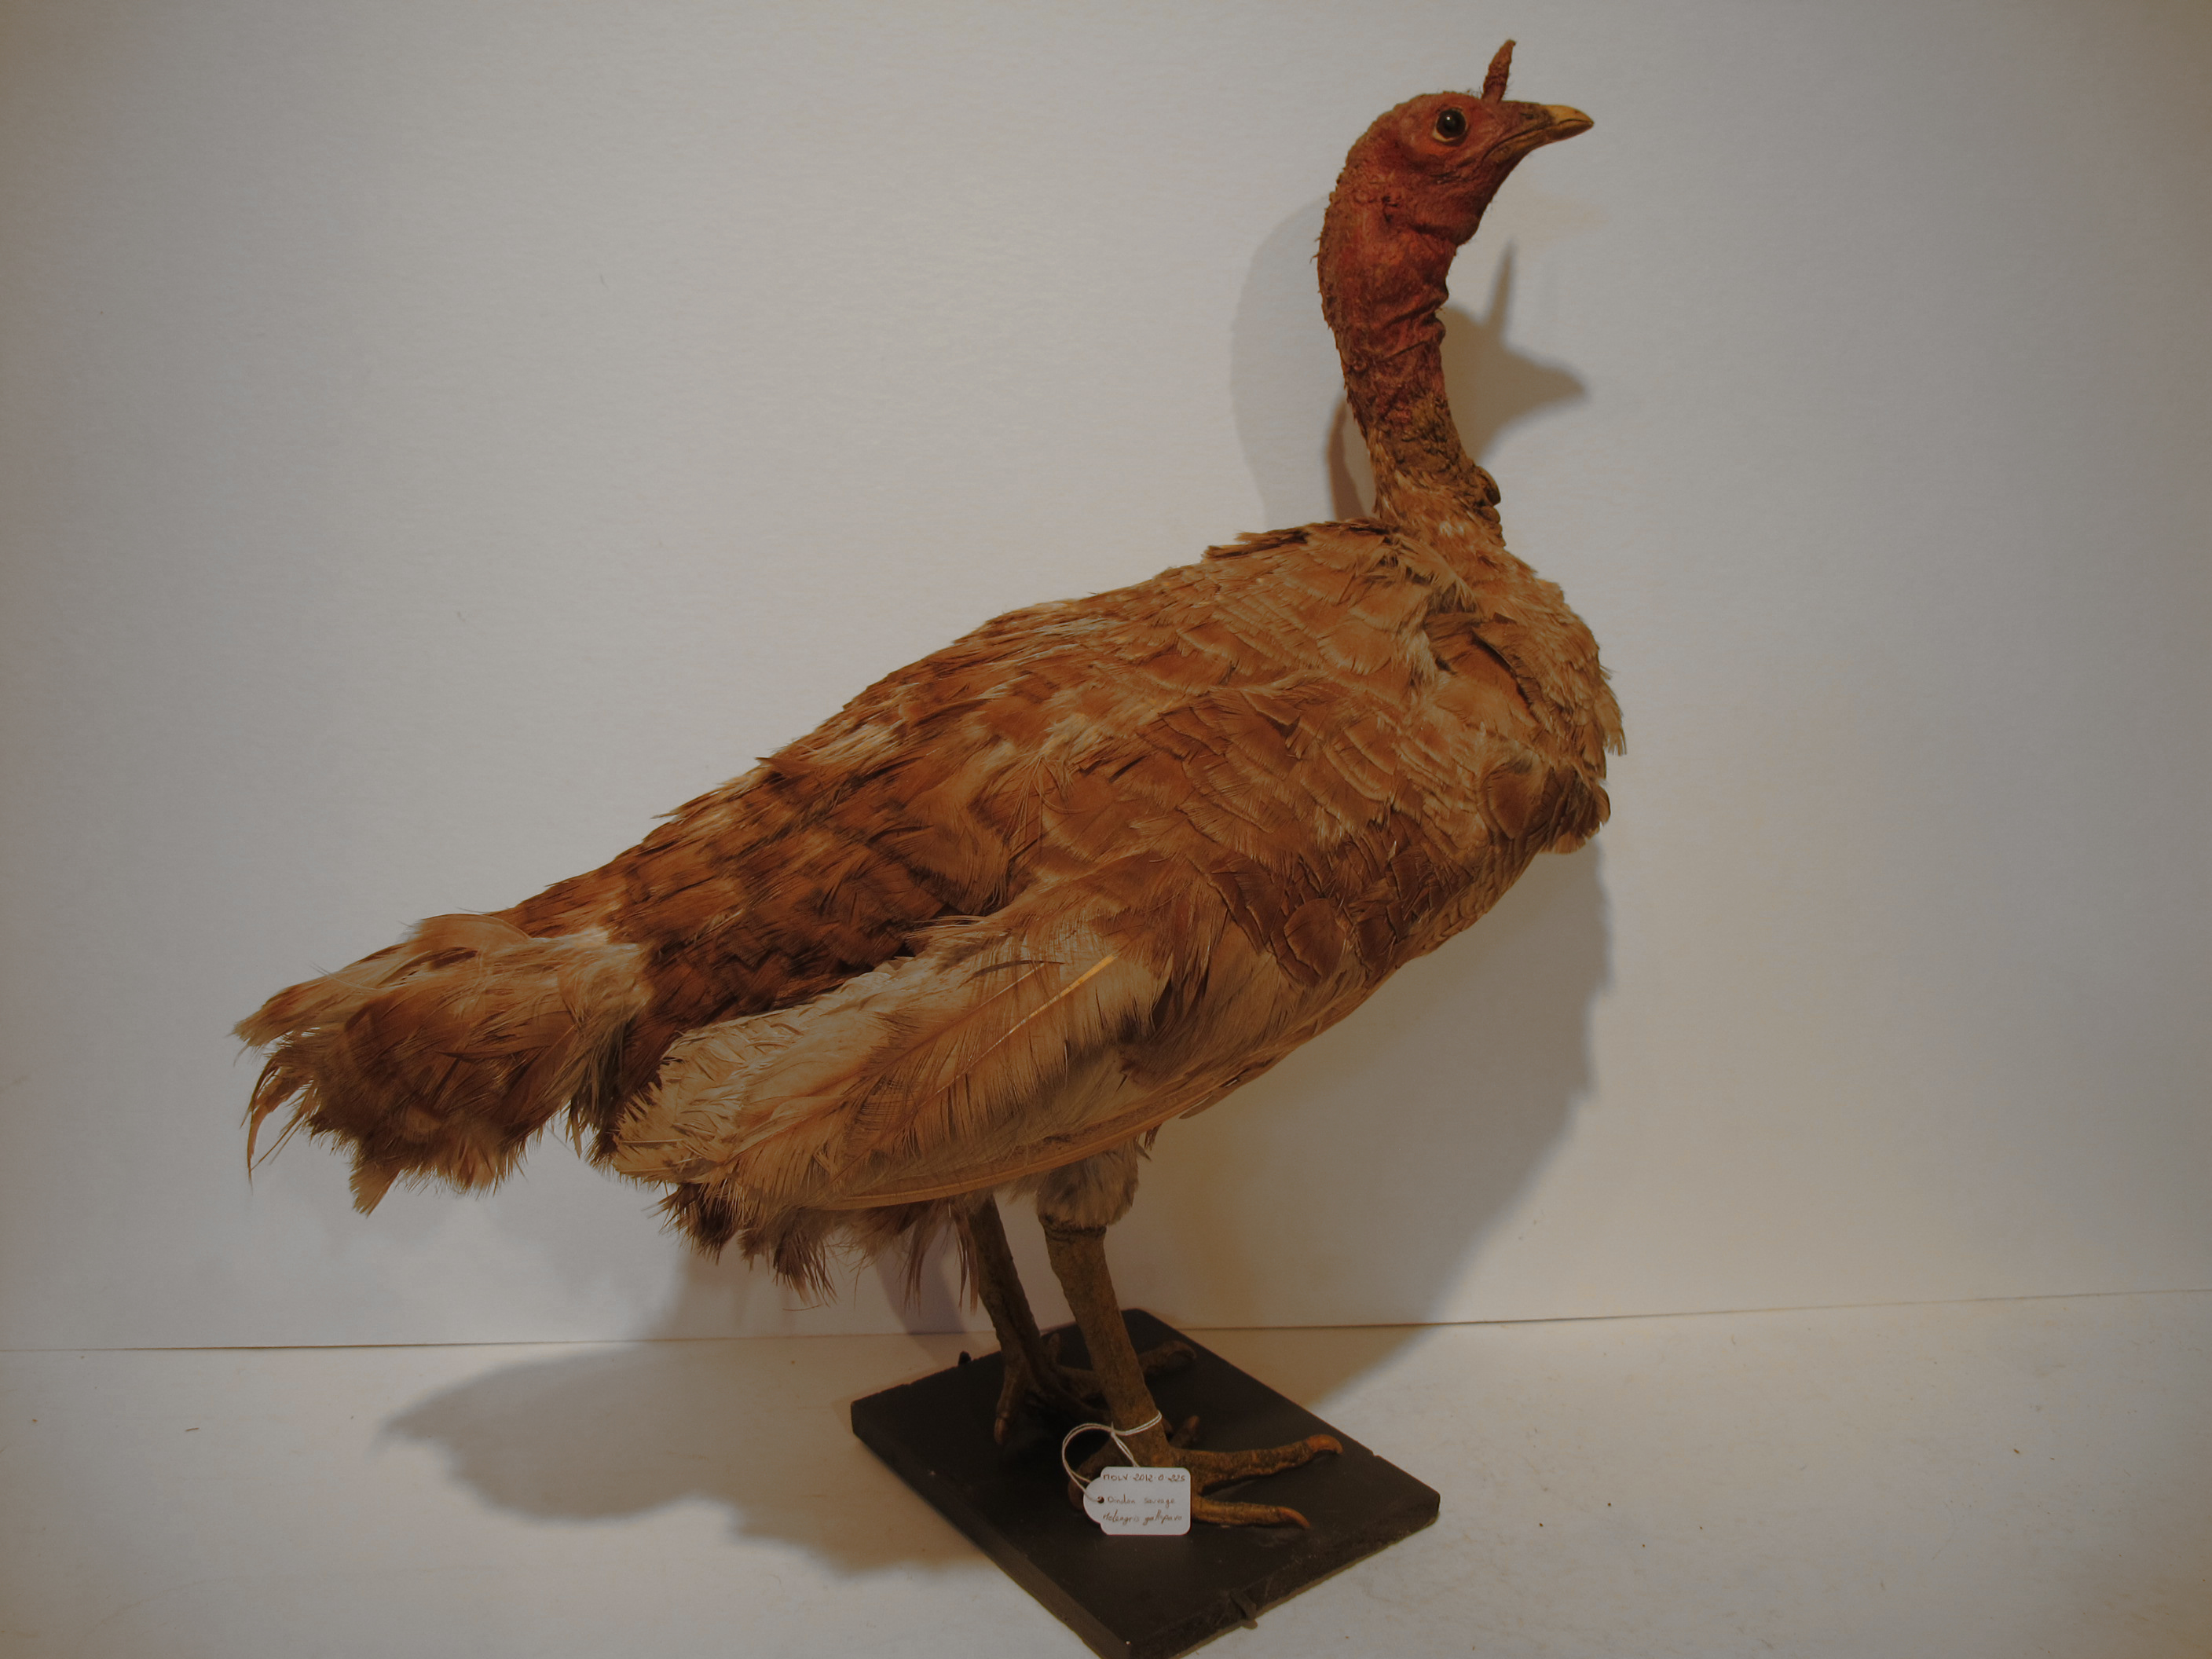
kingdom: Animalia
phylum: Chordata
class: Aves
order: Galliformes
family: Phasianidae
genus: Meleagris
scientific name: Meleagris gallopavo
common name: Wild Turkey
